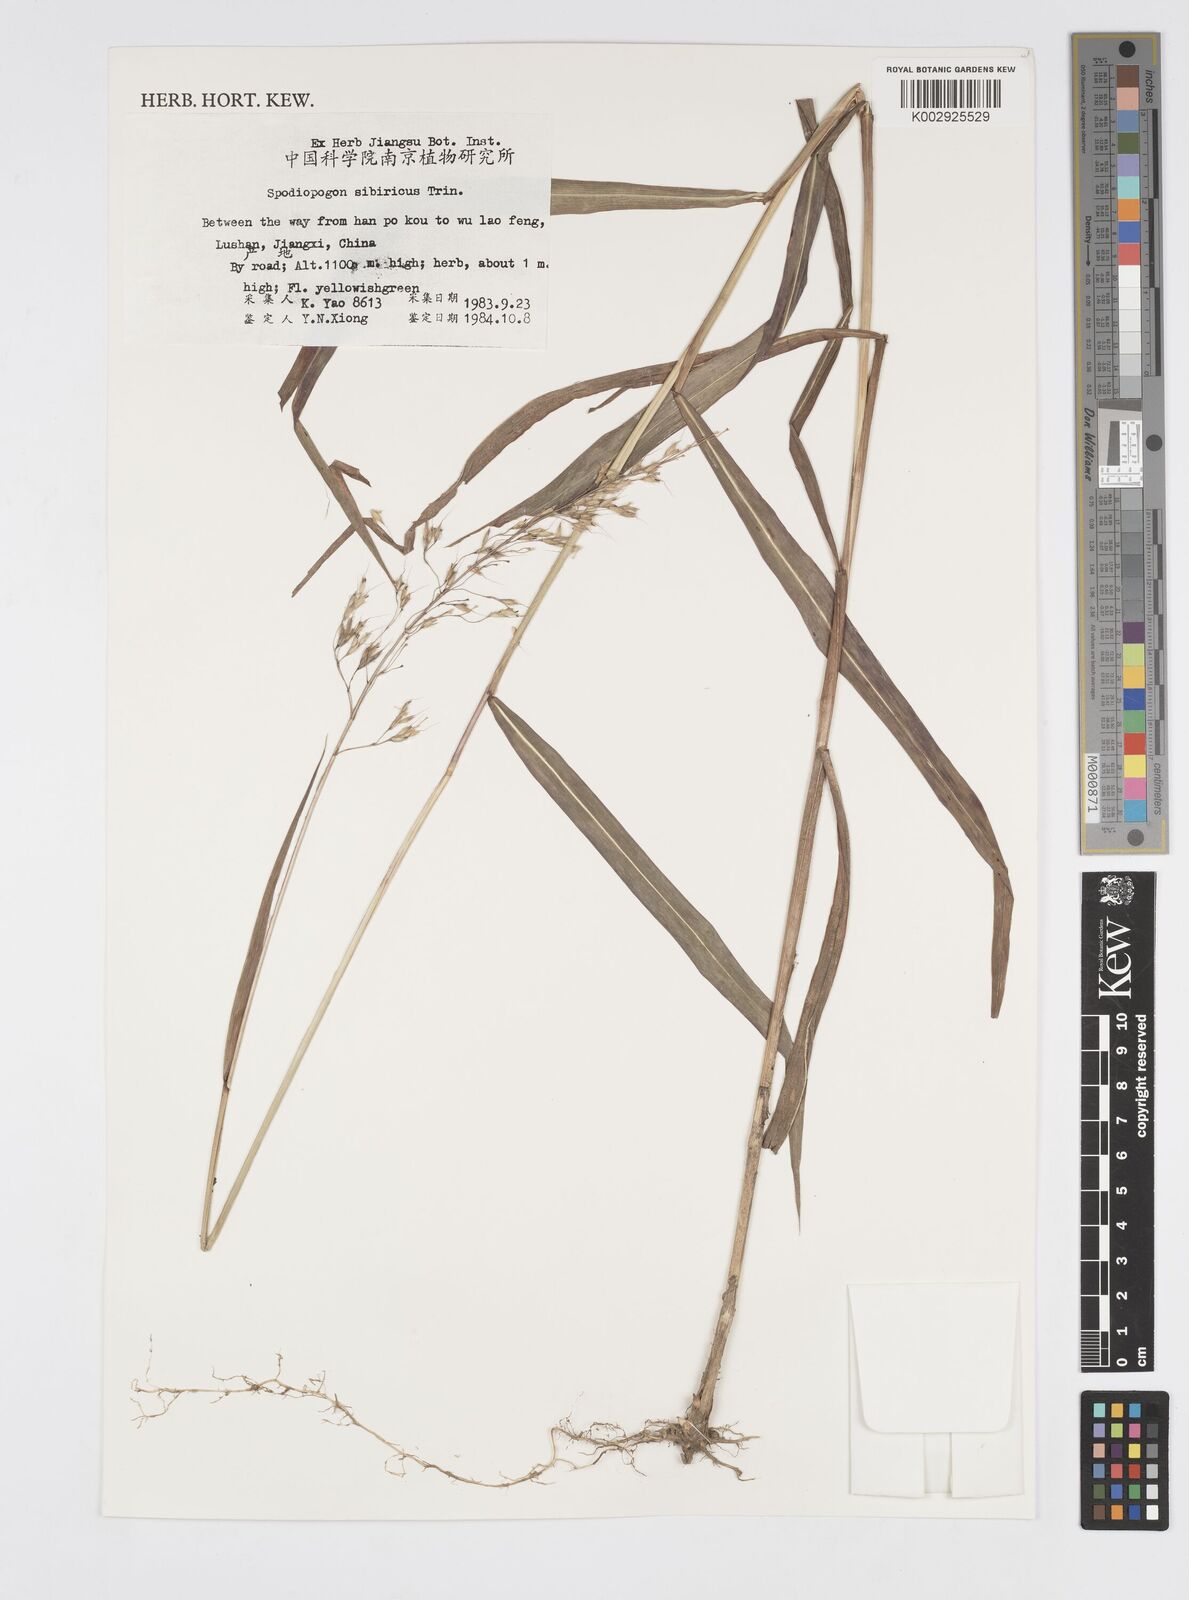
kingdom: Plantae
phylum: Tracheophyta
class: Liliopsida
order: Poales
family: Poaceae
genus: Spodiopogon
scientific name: Spodiopogon sibiricus
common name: Siberian graybeard
